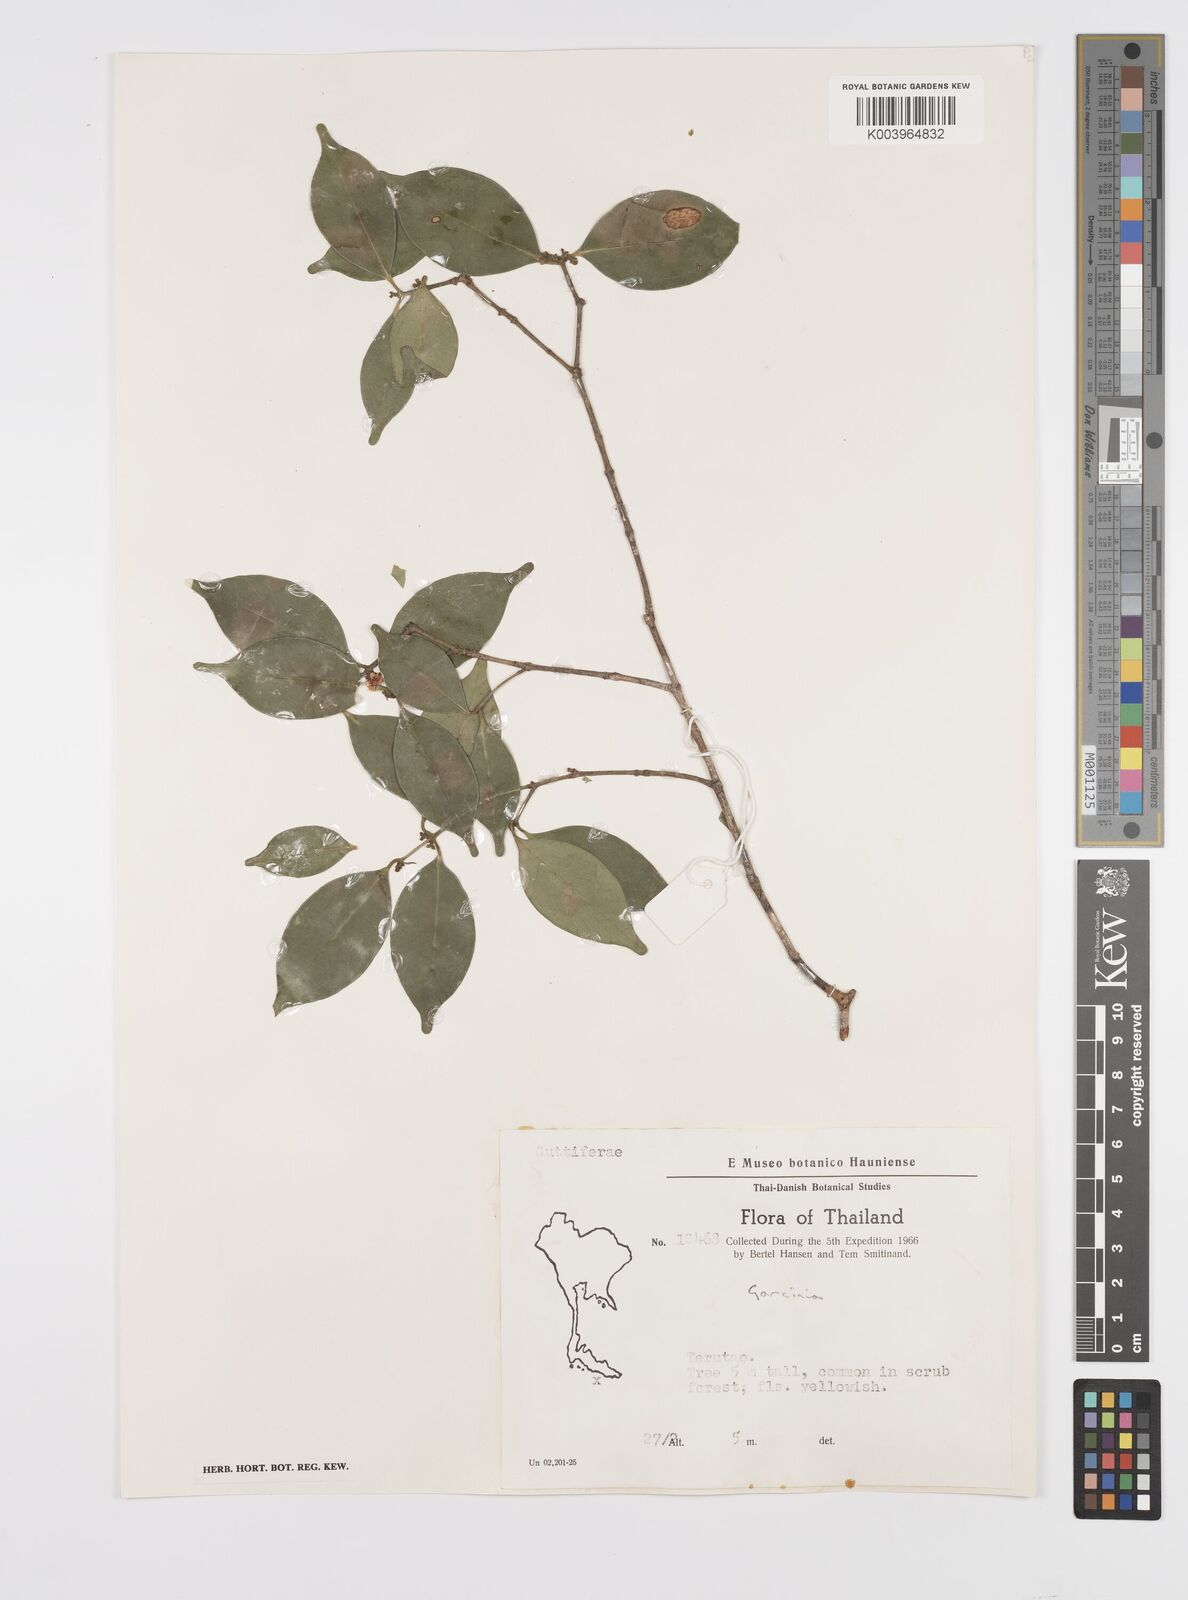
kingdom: Plantae
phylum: Tracheophyta
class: Magnoliopsida
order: Malpighiales
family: Clusiaceae
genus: Garcinia
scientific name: Garcinia
